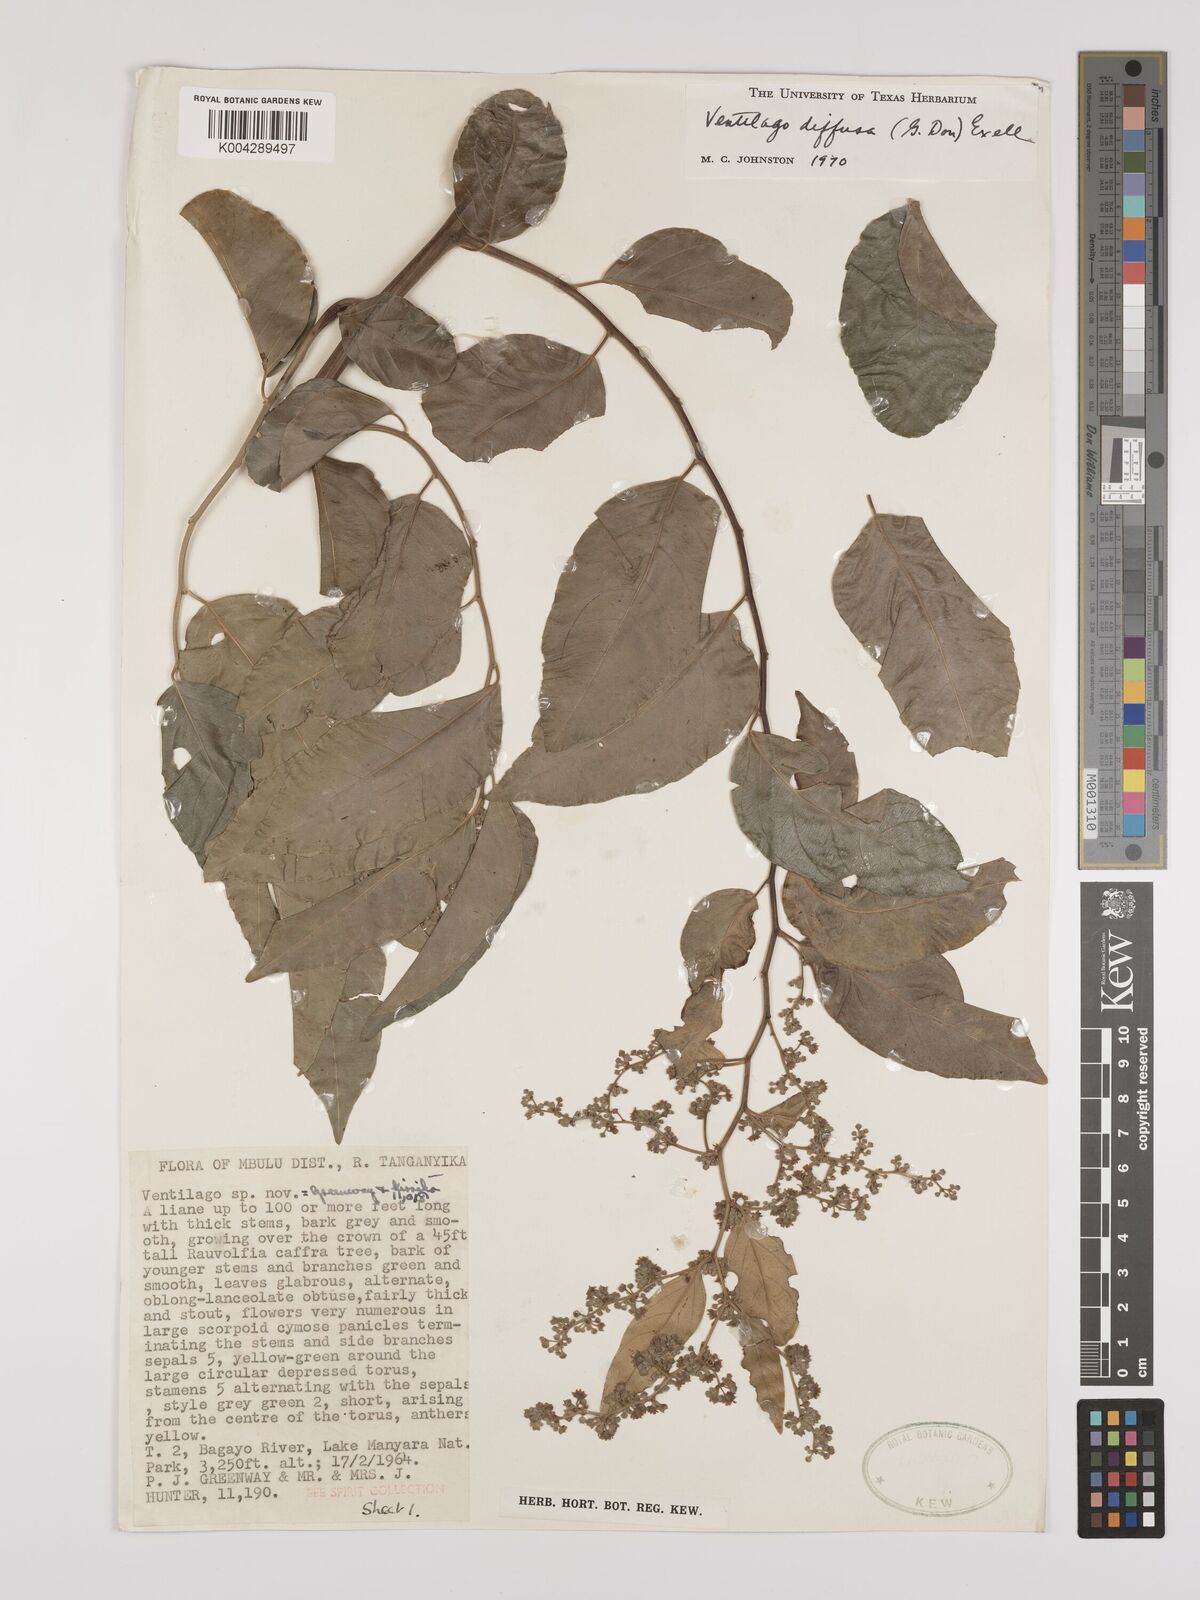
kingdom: Plantae
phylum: Tracheophyta
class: Magnoliopsida
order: Rosales
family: Rhamnaceae
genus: Ventilago
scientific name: Ventilago diffusa
